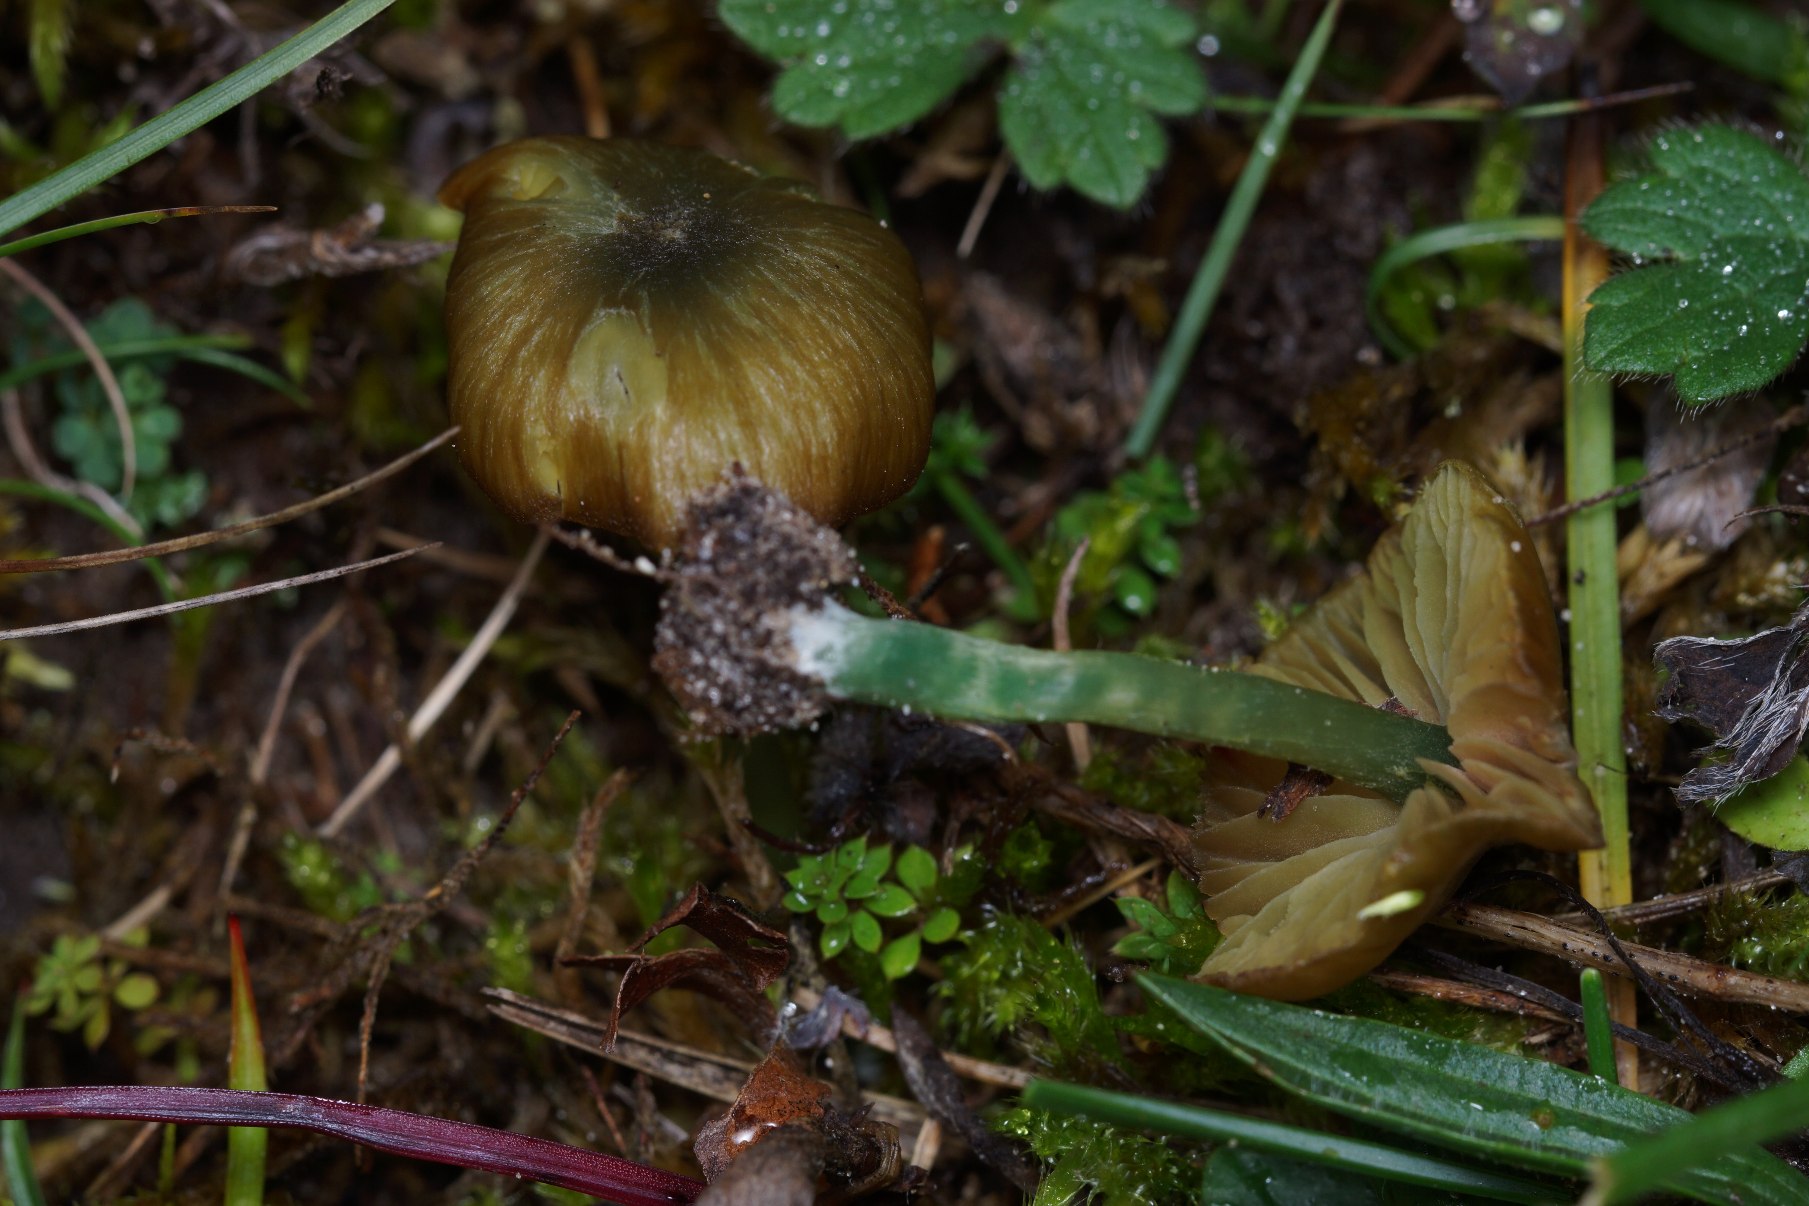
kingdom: Fungi
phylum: Basidiomycota
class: Agaricomycetes
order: Agaricales
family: Entolomataceae
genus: Entoloma
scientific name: Entoloma incanum
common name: Grøngul rødblad
